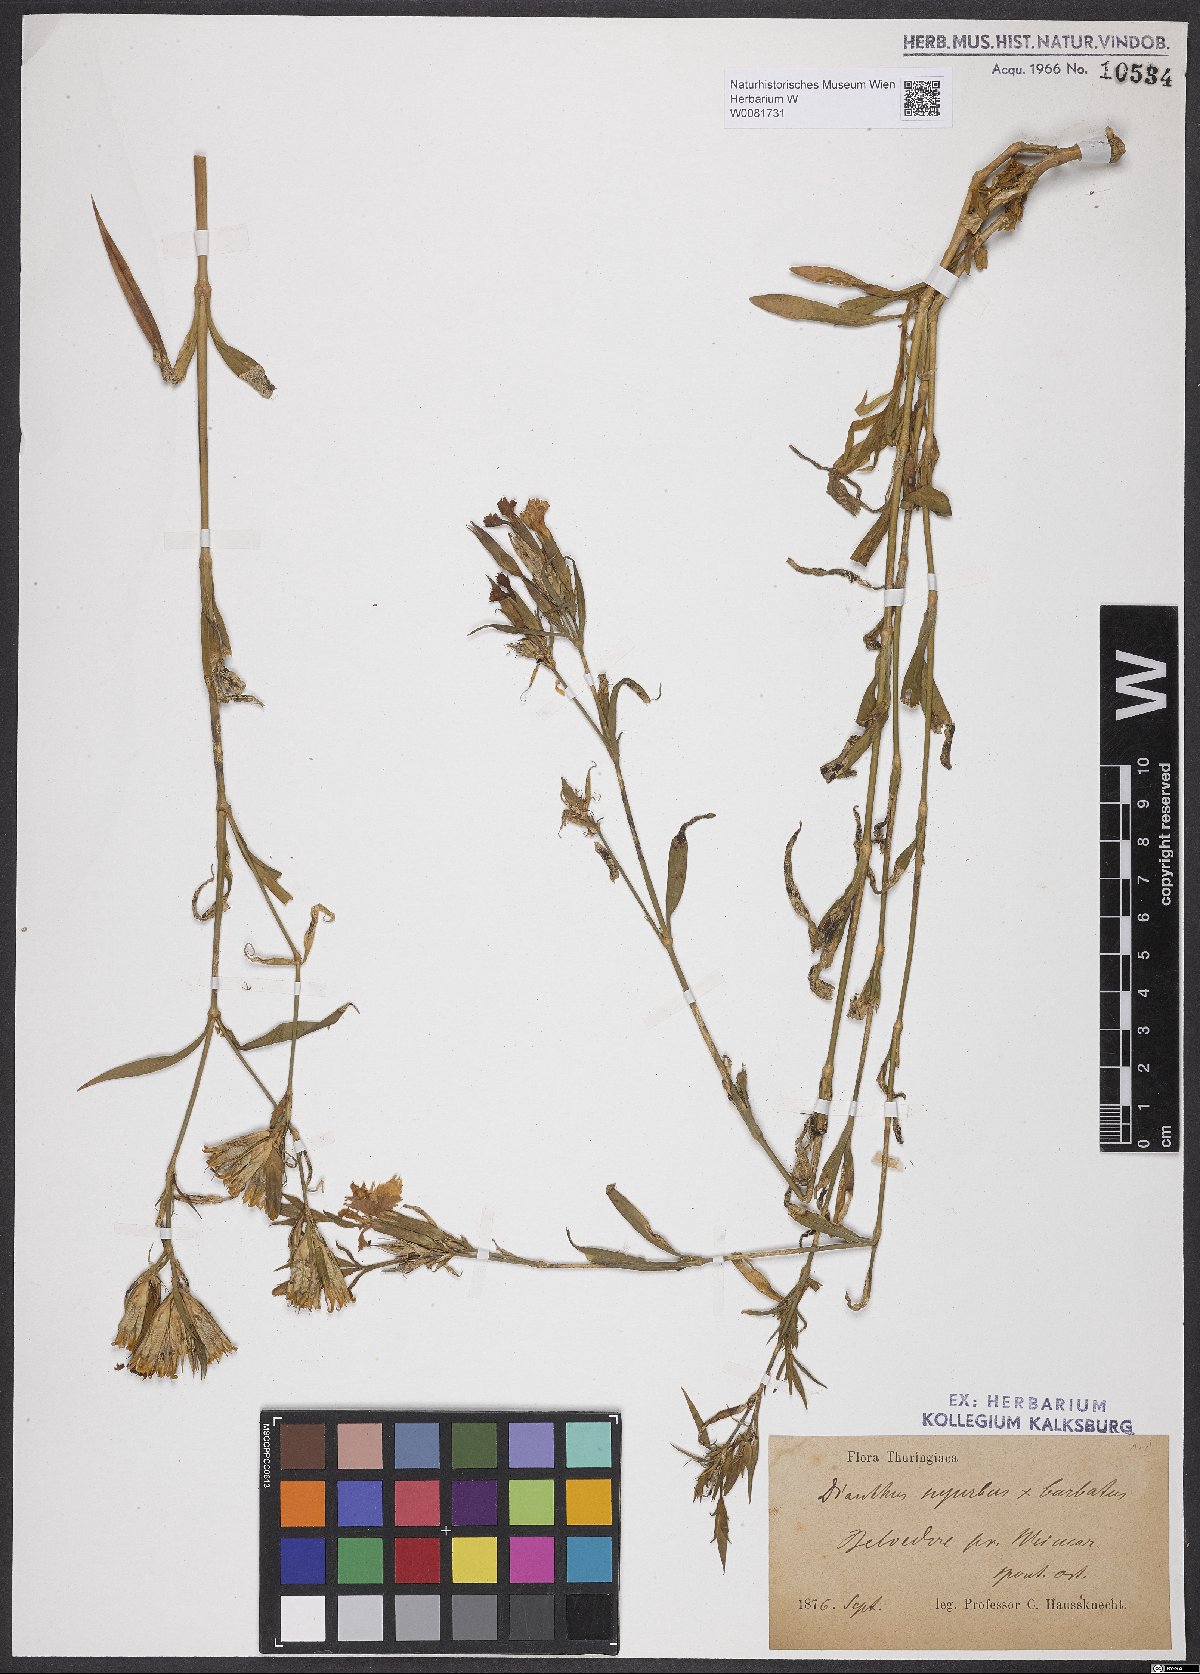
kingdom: Plantae
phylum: Tracheophyta
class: Magnoliopsida
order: Caryophyllales
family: Caryophyllaceae
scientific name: Caryophyllaceae
